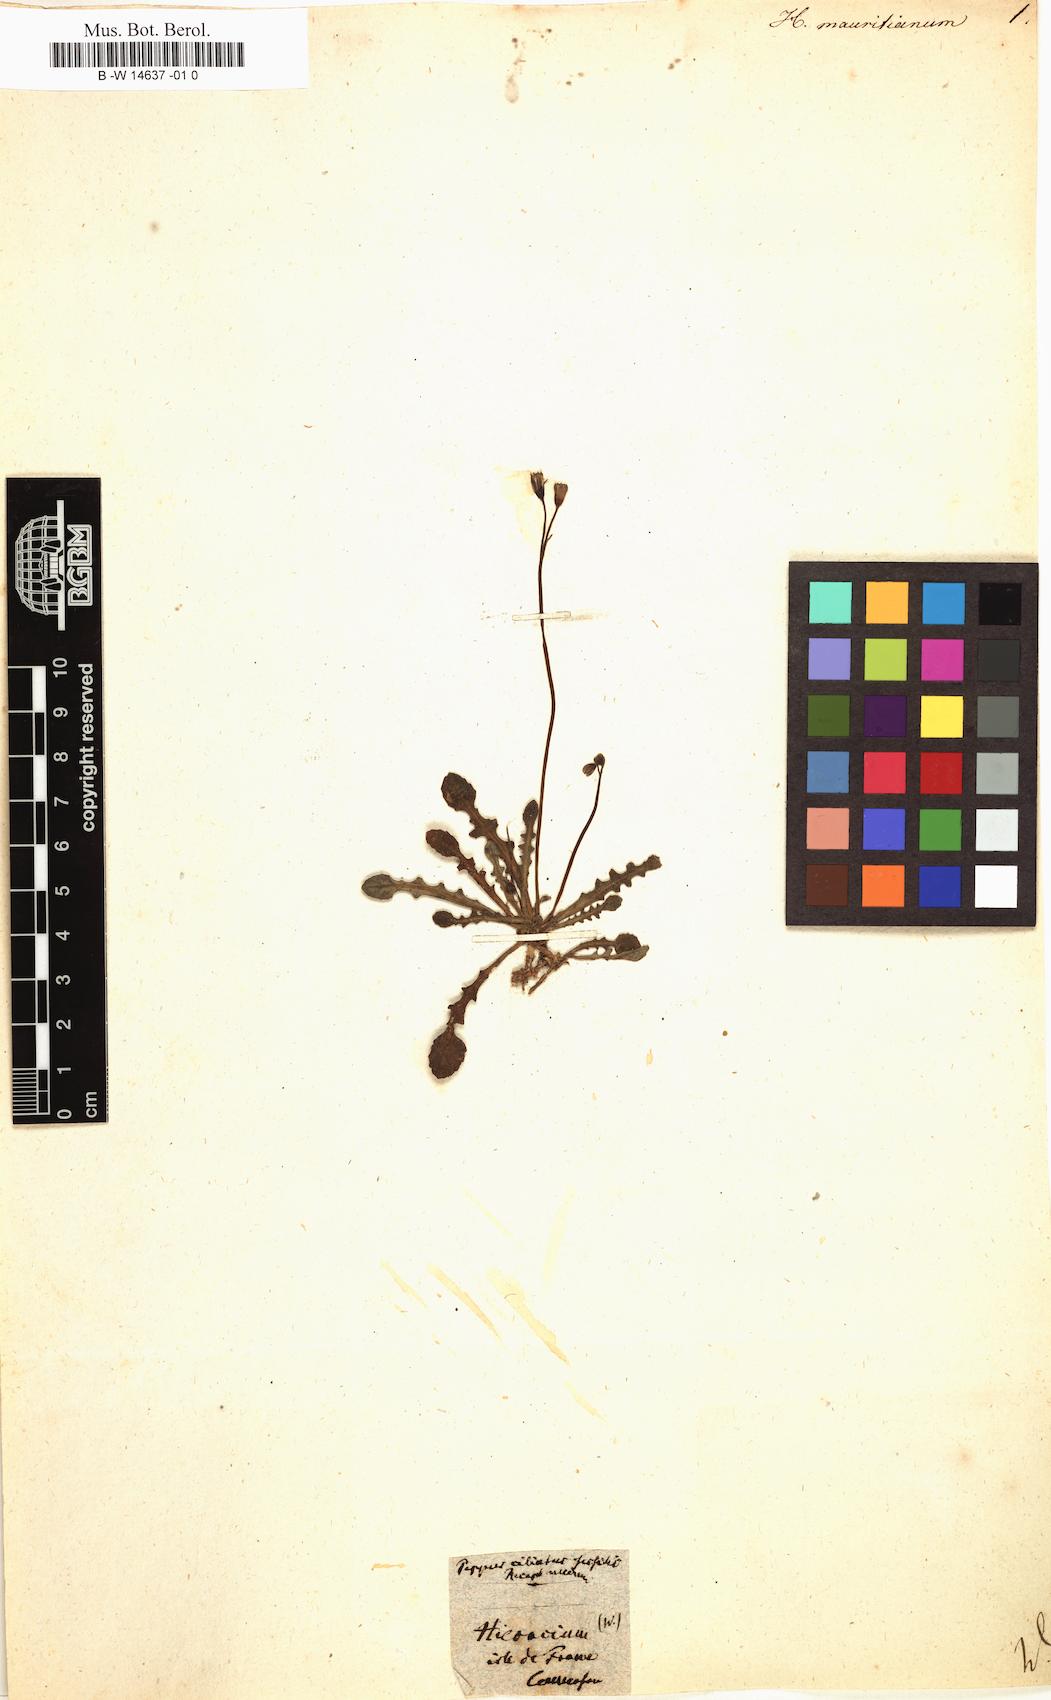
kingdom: Plantae
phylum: Tracheophyta
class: Magnoliopsida
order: Asterales
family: Asteraceae
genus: Hieracium
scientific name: Hieracium mauritianum
